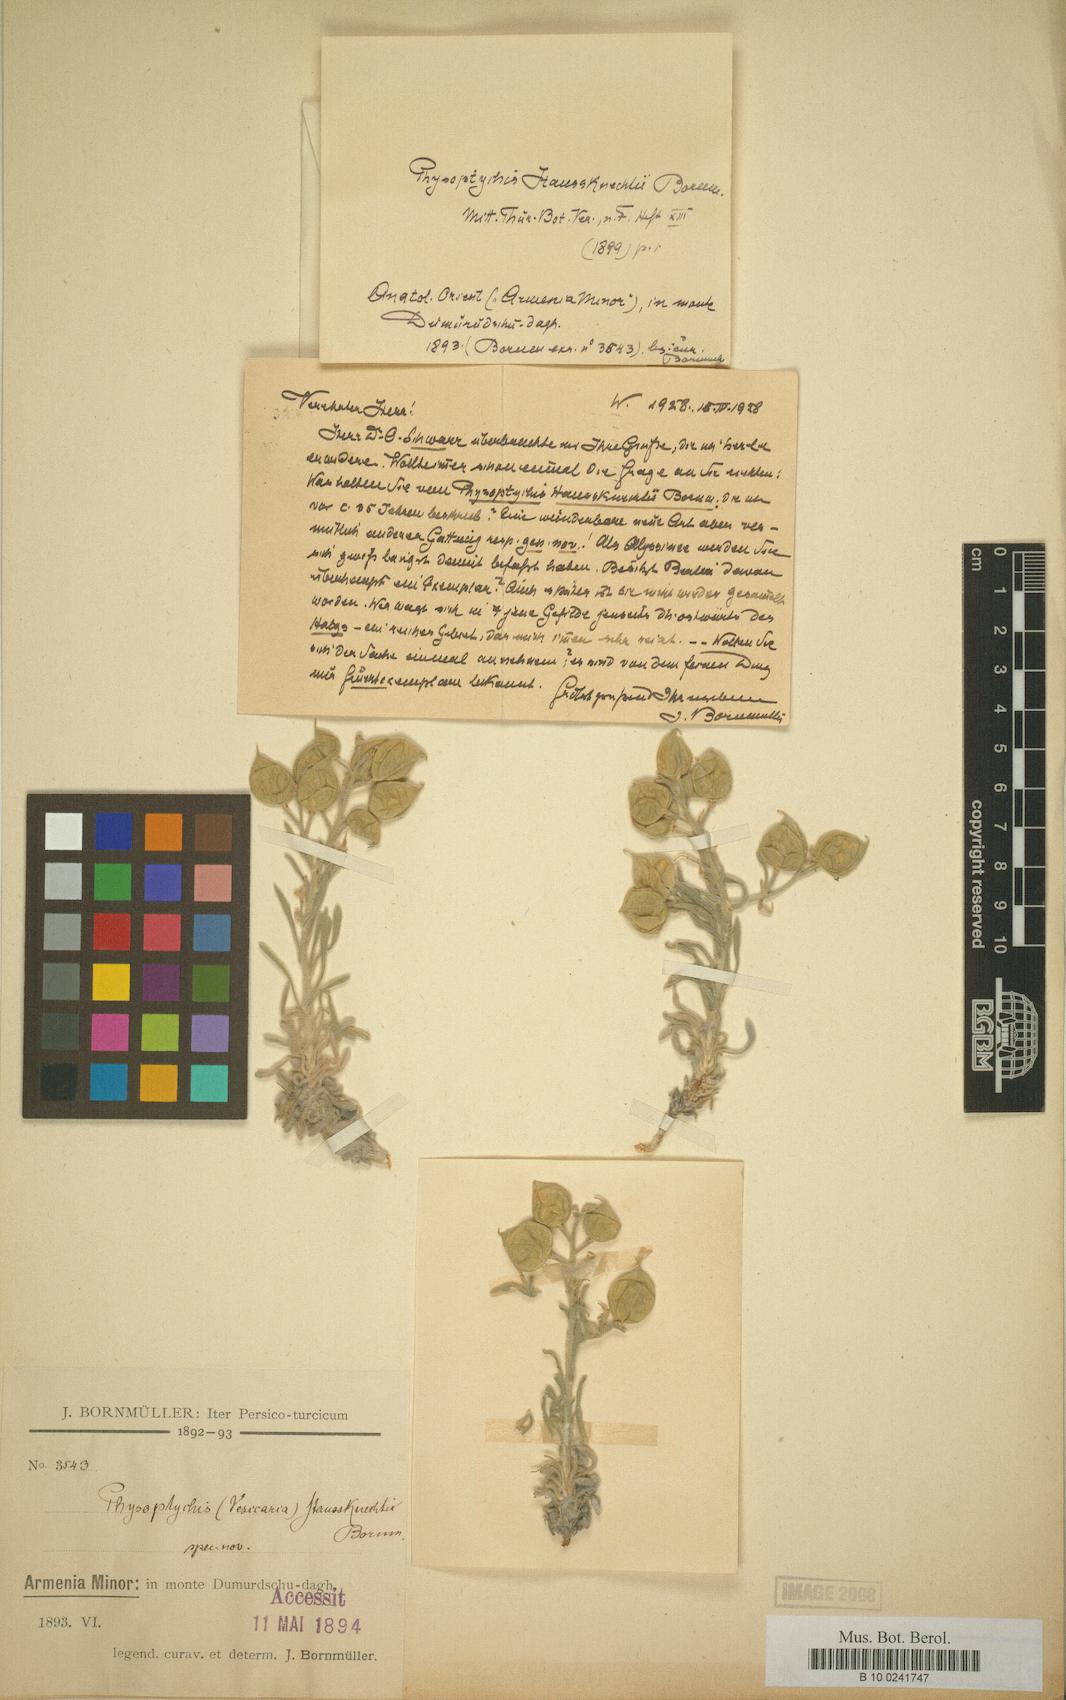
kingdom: Plantae
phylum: Tracheophyta
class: Magnoliopsida
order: Brassicales
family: Brassicaceae
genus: Physoptychis
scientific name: Physoptychis haussknechtii
